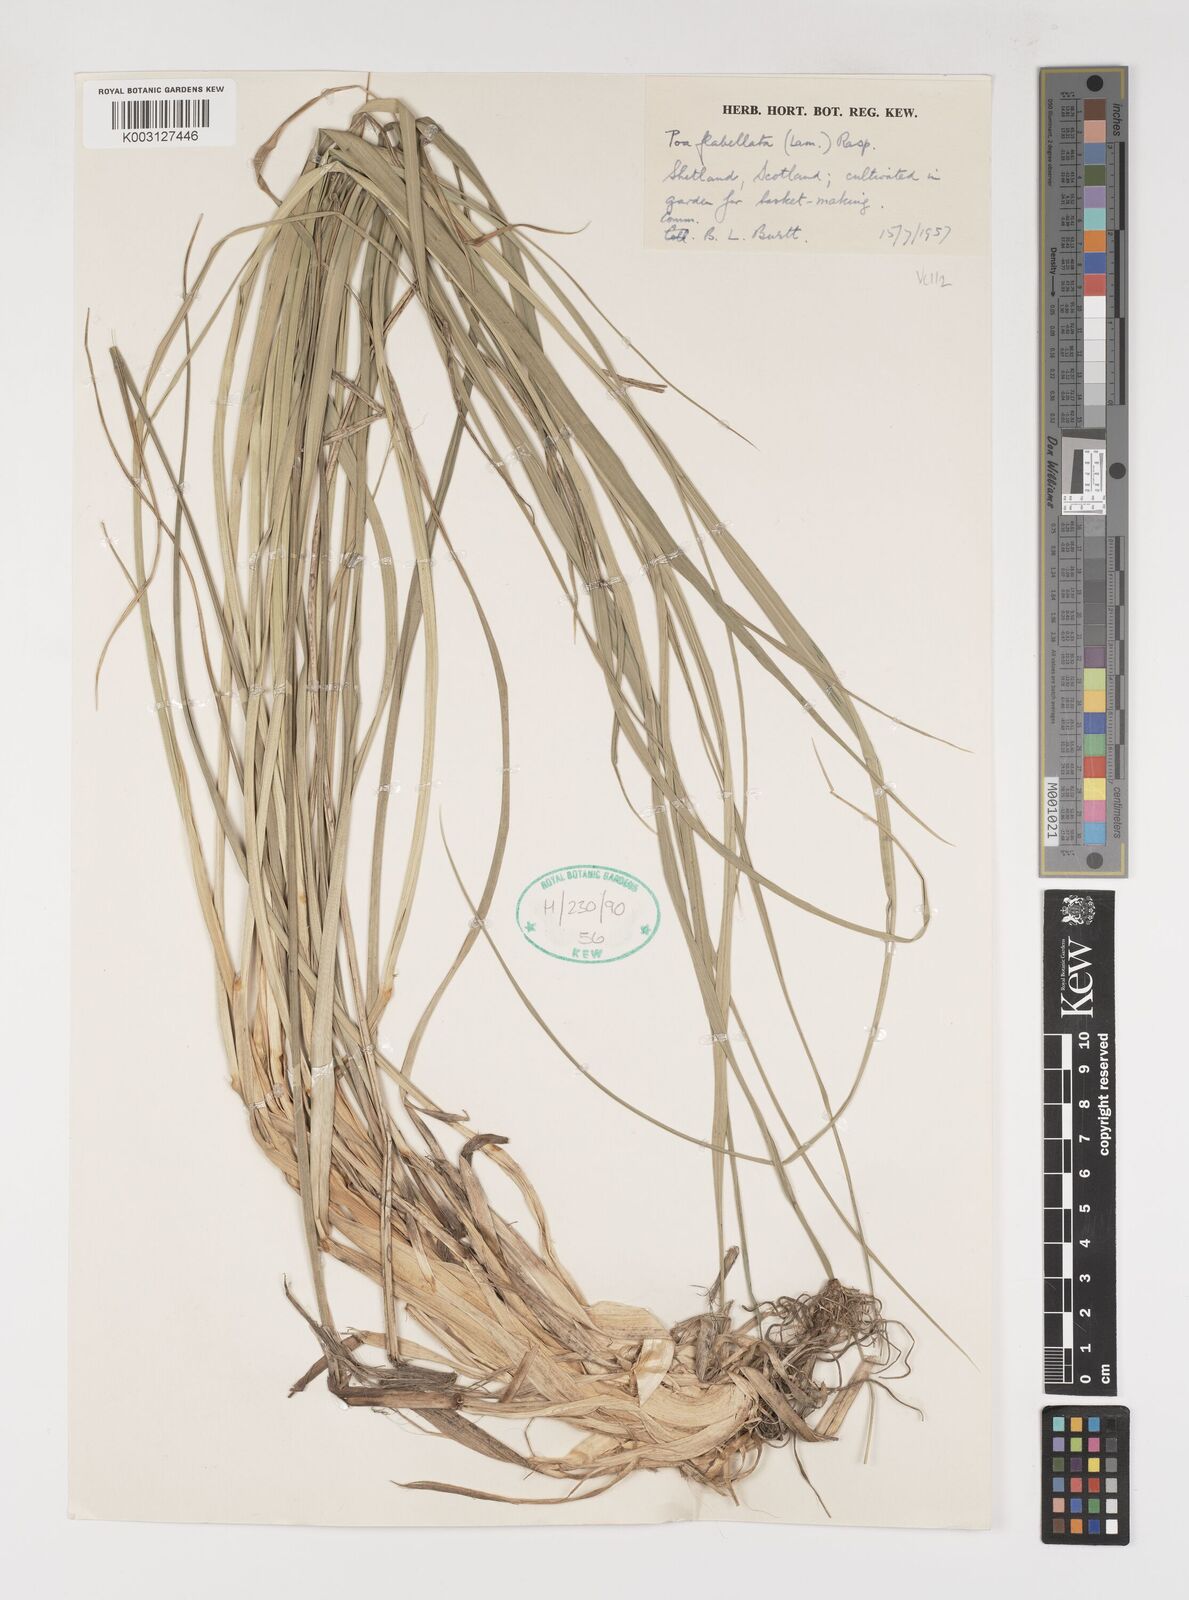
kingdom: Plantae
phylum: Tracheophyta
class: Liliopsida
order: Poales
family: Poaceae
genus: Poa
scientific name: Poa flabellata
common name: Tussac-grass
